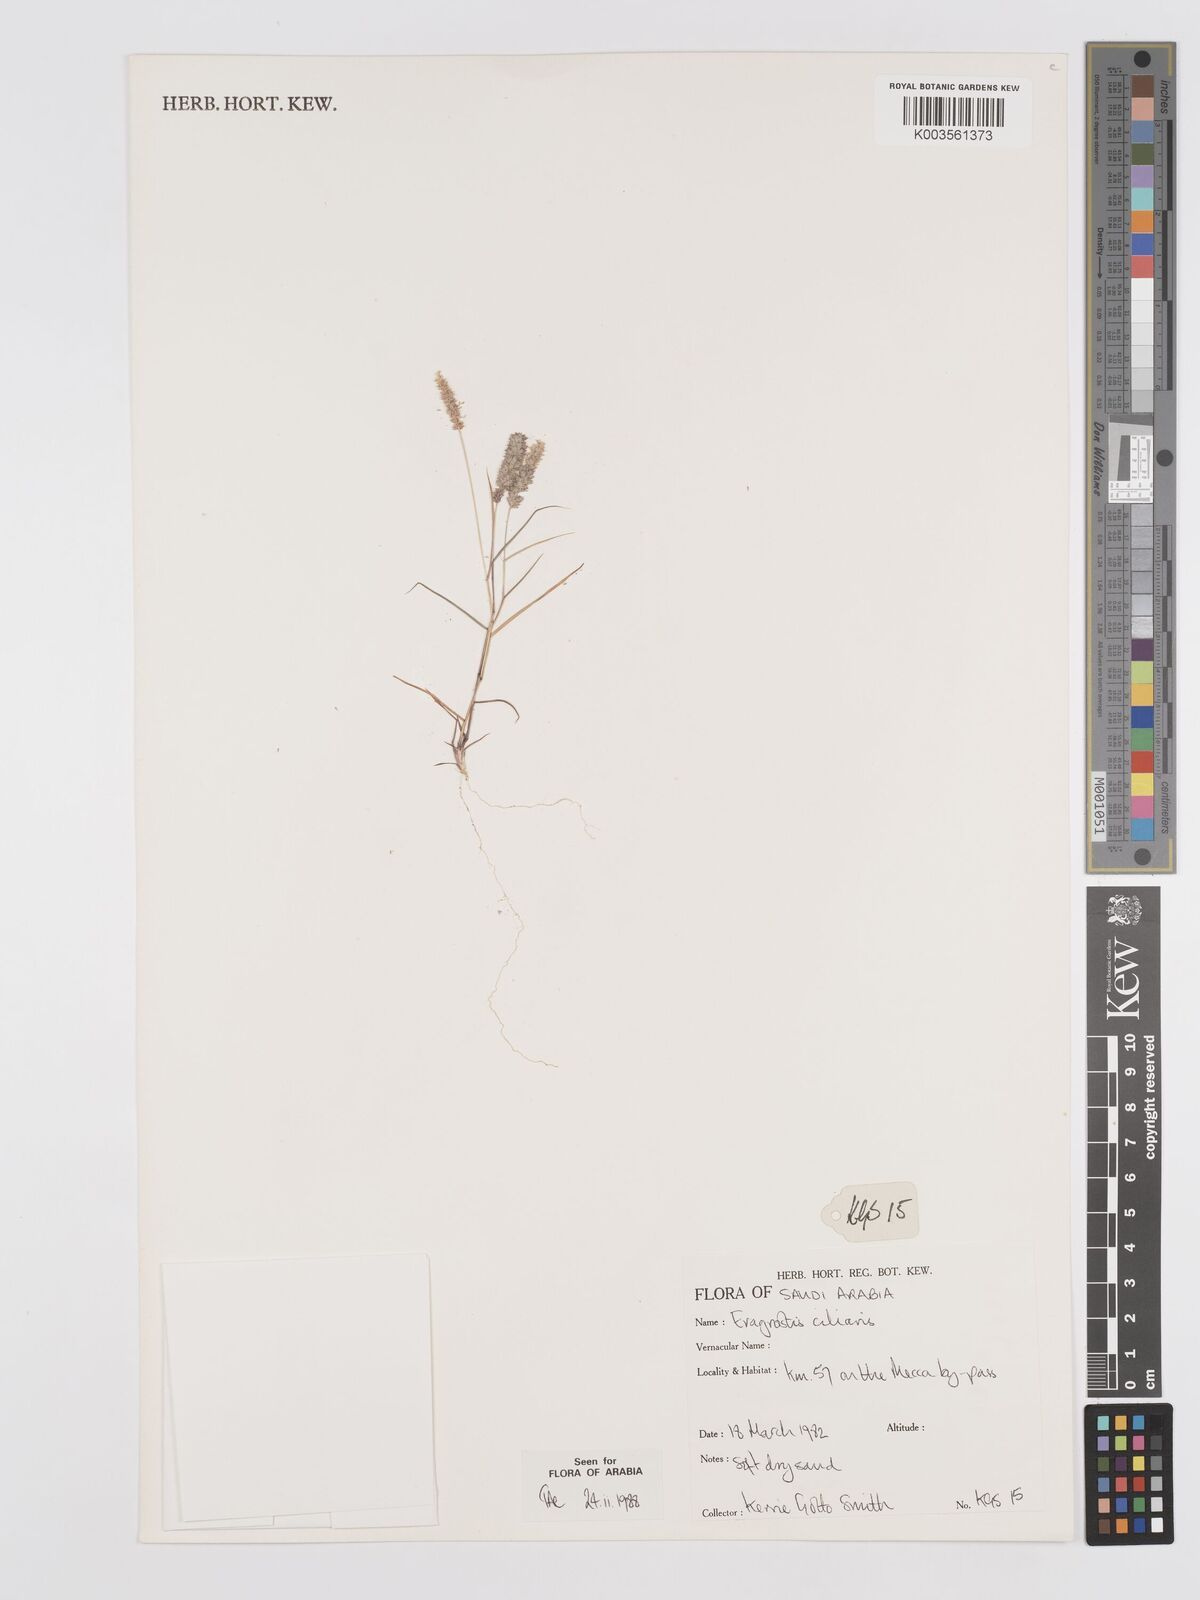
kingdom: Plantae
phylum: Tracheophyta
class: Liliopsida
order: Poales
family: Poaceae
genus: Eragrostis
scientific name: Eragrostis ciliaris
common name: Gophertail lovegrass
